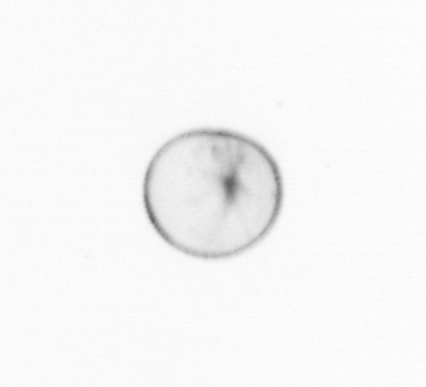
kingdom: Chromista
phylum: Myzozoa
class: Dinophyceae
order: Noctilucales
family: Noctilucaceae
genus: Noctiluca
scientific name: Noctiluca scintillans
